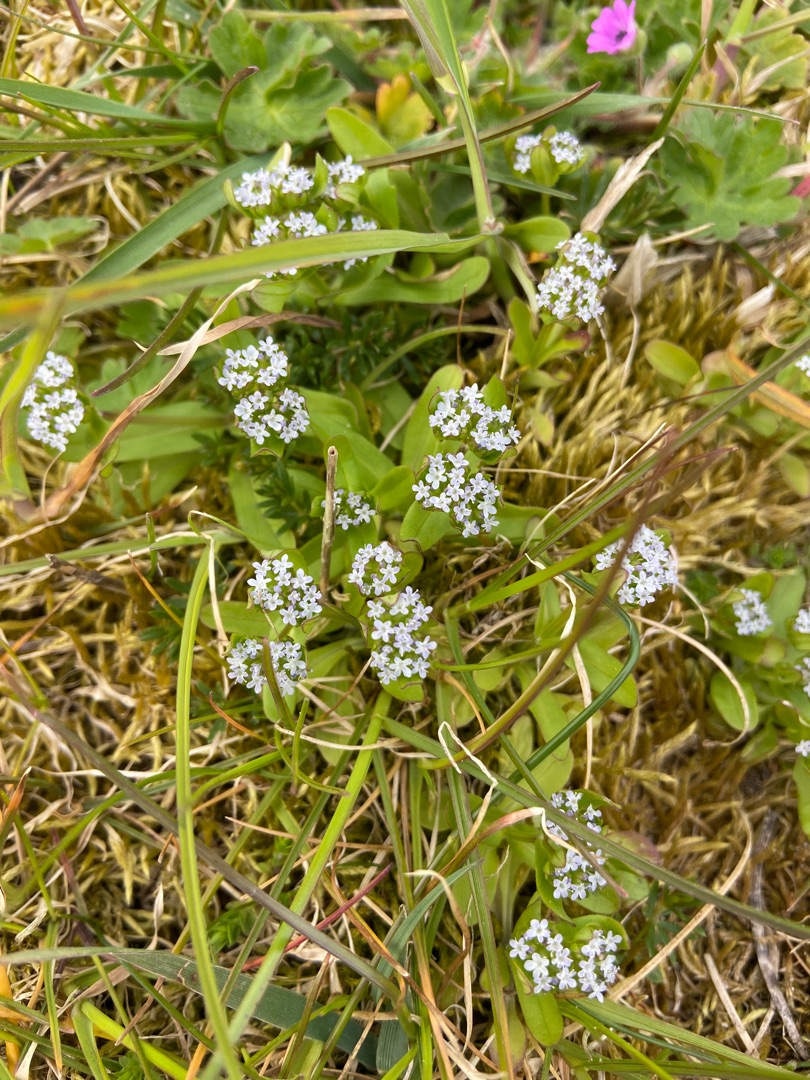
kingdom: Plantae
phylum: Tracheophyta
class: Magnoliopsida
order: Dipsacales
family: Caprifoliaceae
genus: Valerianella
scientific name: Valerianella locusta
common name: Tandfri vårsalat
